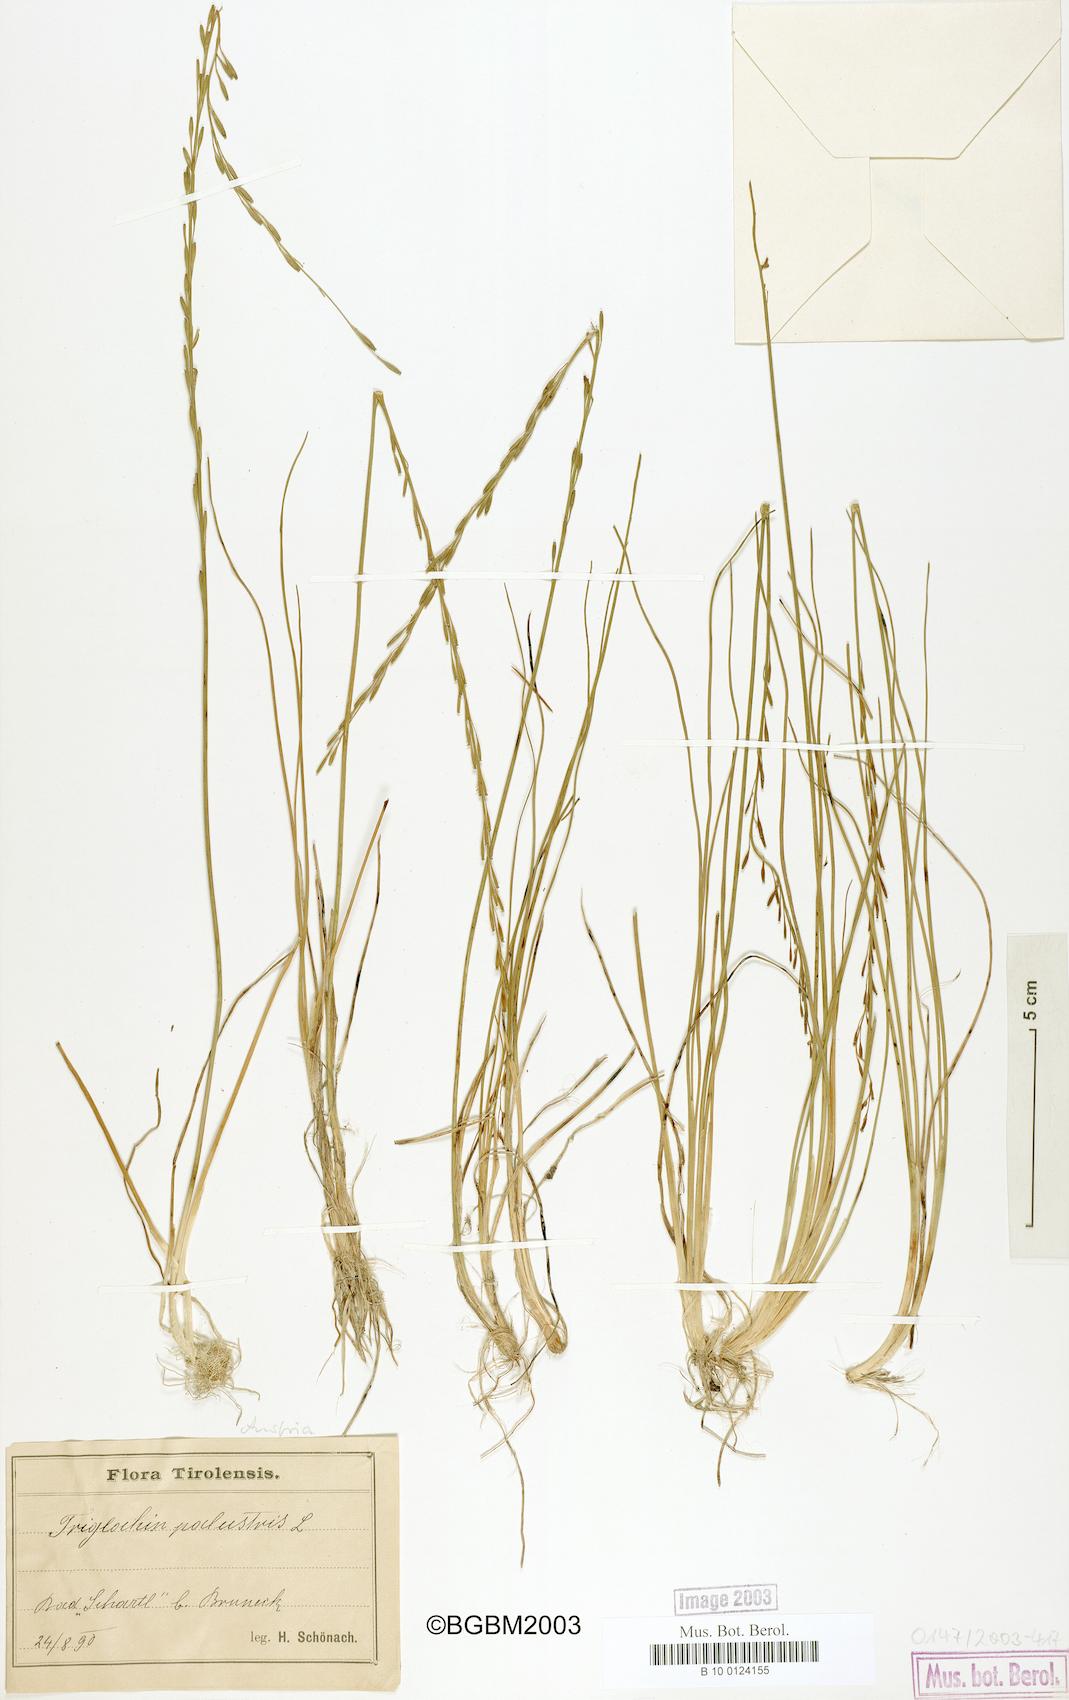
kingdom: Plantae
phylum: Tracheophyta
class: Liliopsida
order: Alismatales
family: Juncaginaceae
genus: Triglochin
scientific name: Triglochin palustris
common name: Marsh arrowgrass
